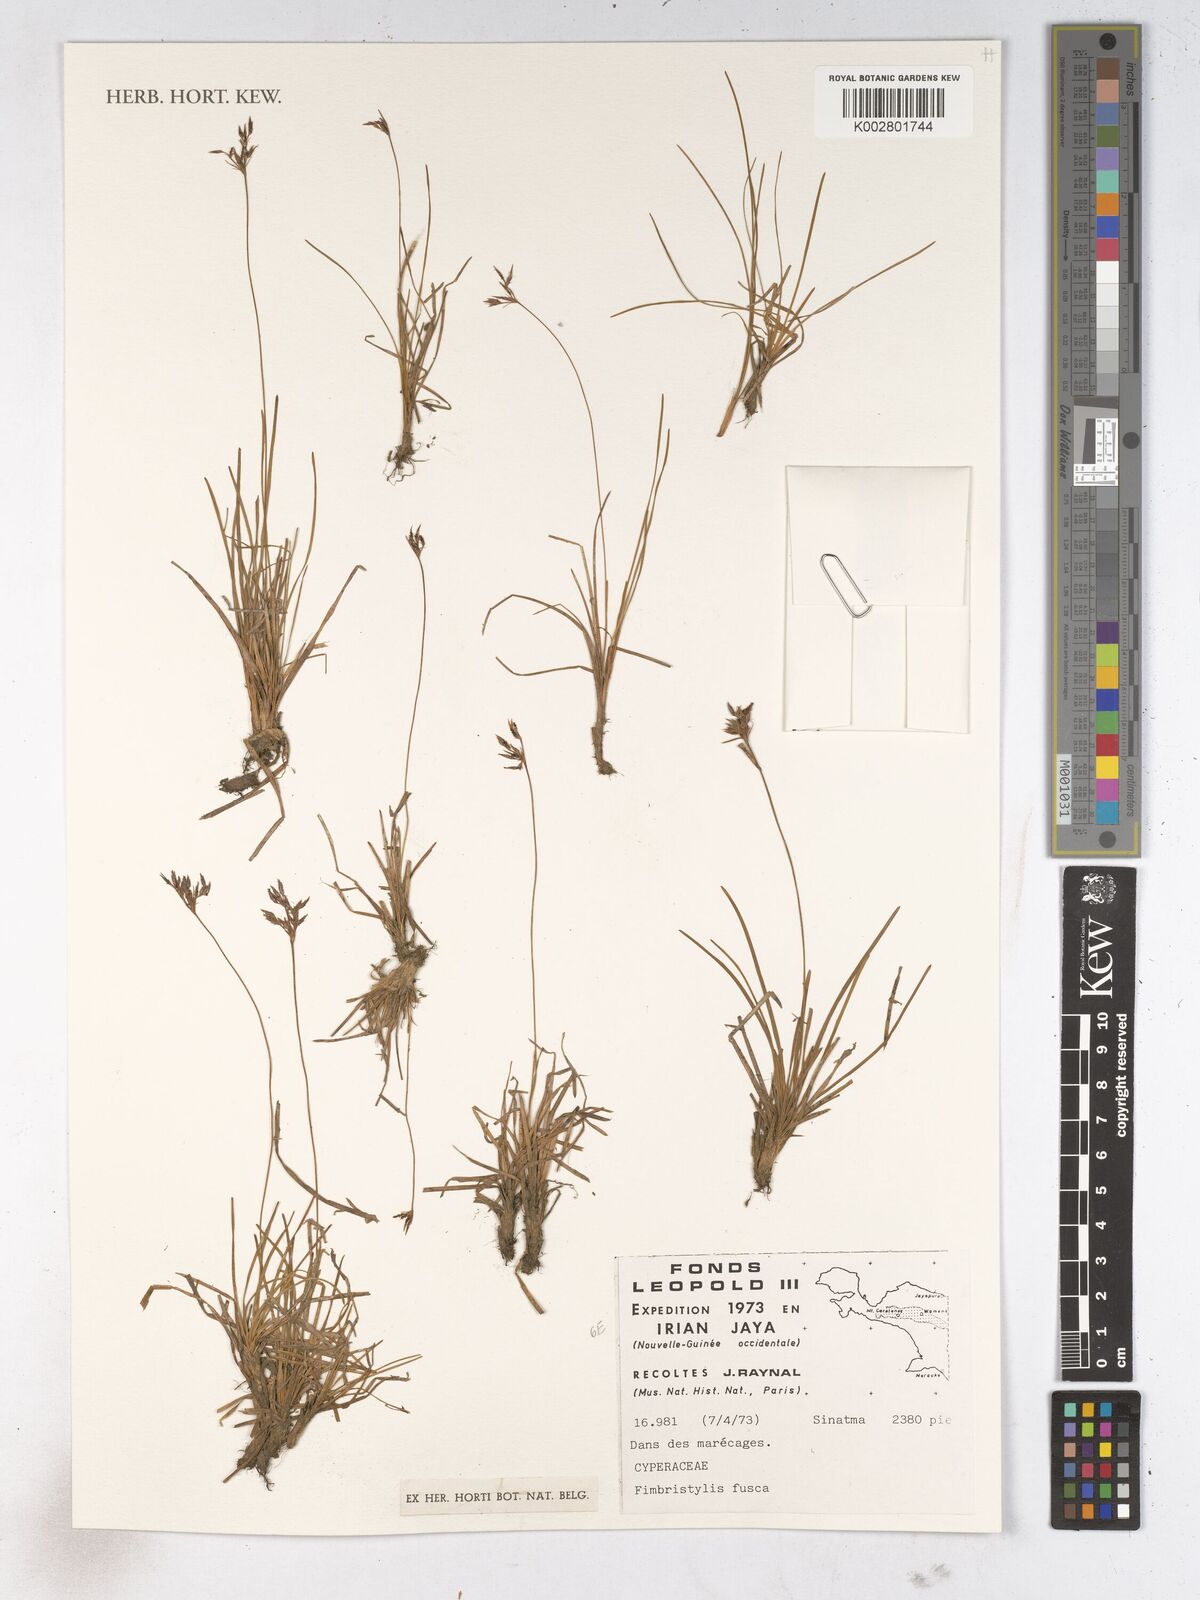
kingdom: Plantae
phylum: Tracheophyta
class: Liliopsida
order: Poales
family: Cyperaceae
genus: Fimbristylis
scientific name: Fimbristylis fusca
